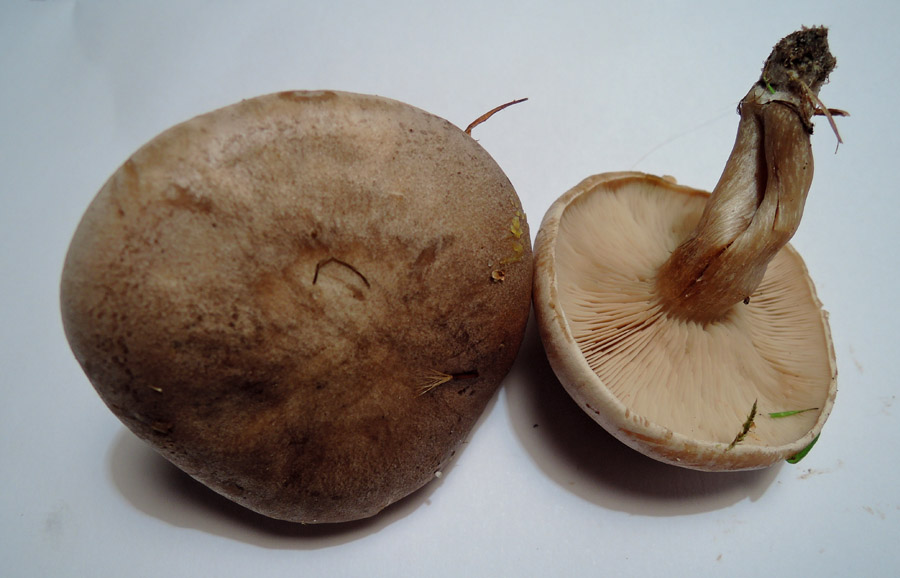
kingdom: Fungi
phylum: Basidiomycota
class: Agaricomycetes
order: Agaricales
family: Tricholomataceae
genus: Lepista
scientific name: Lepista panaeolus
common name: marmoreret hekseringshat
